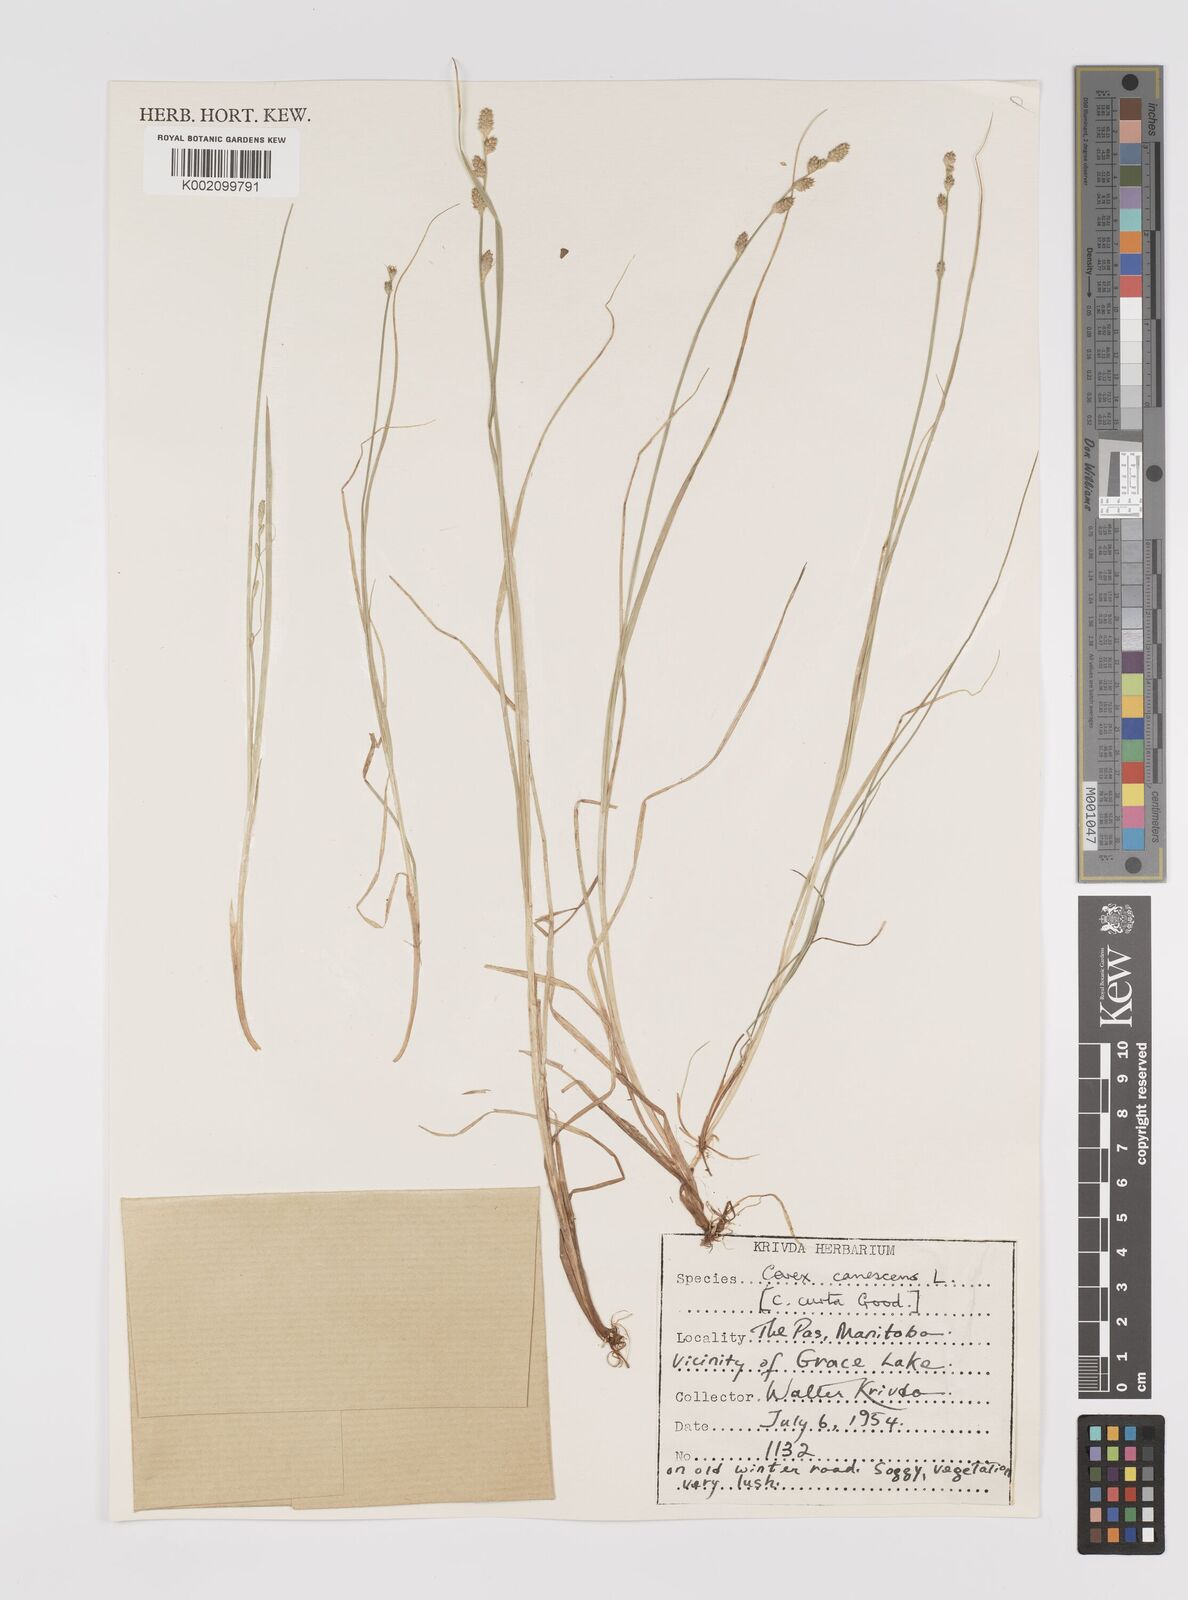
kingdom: Plantae
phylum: Tracheophyta
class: Liliopsida
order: Poales
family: Cyperaceae
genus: Carex
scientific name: Carex curta
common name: White sedge
